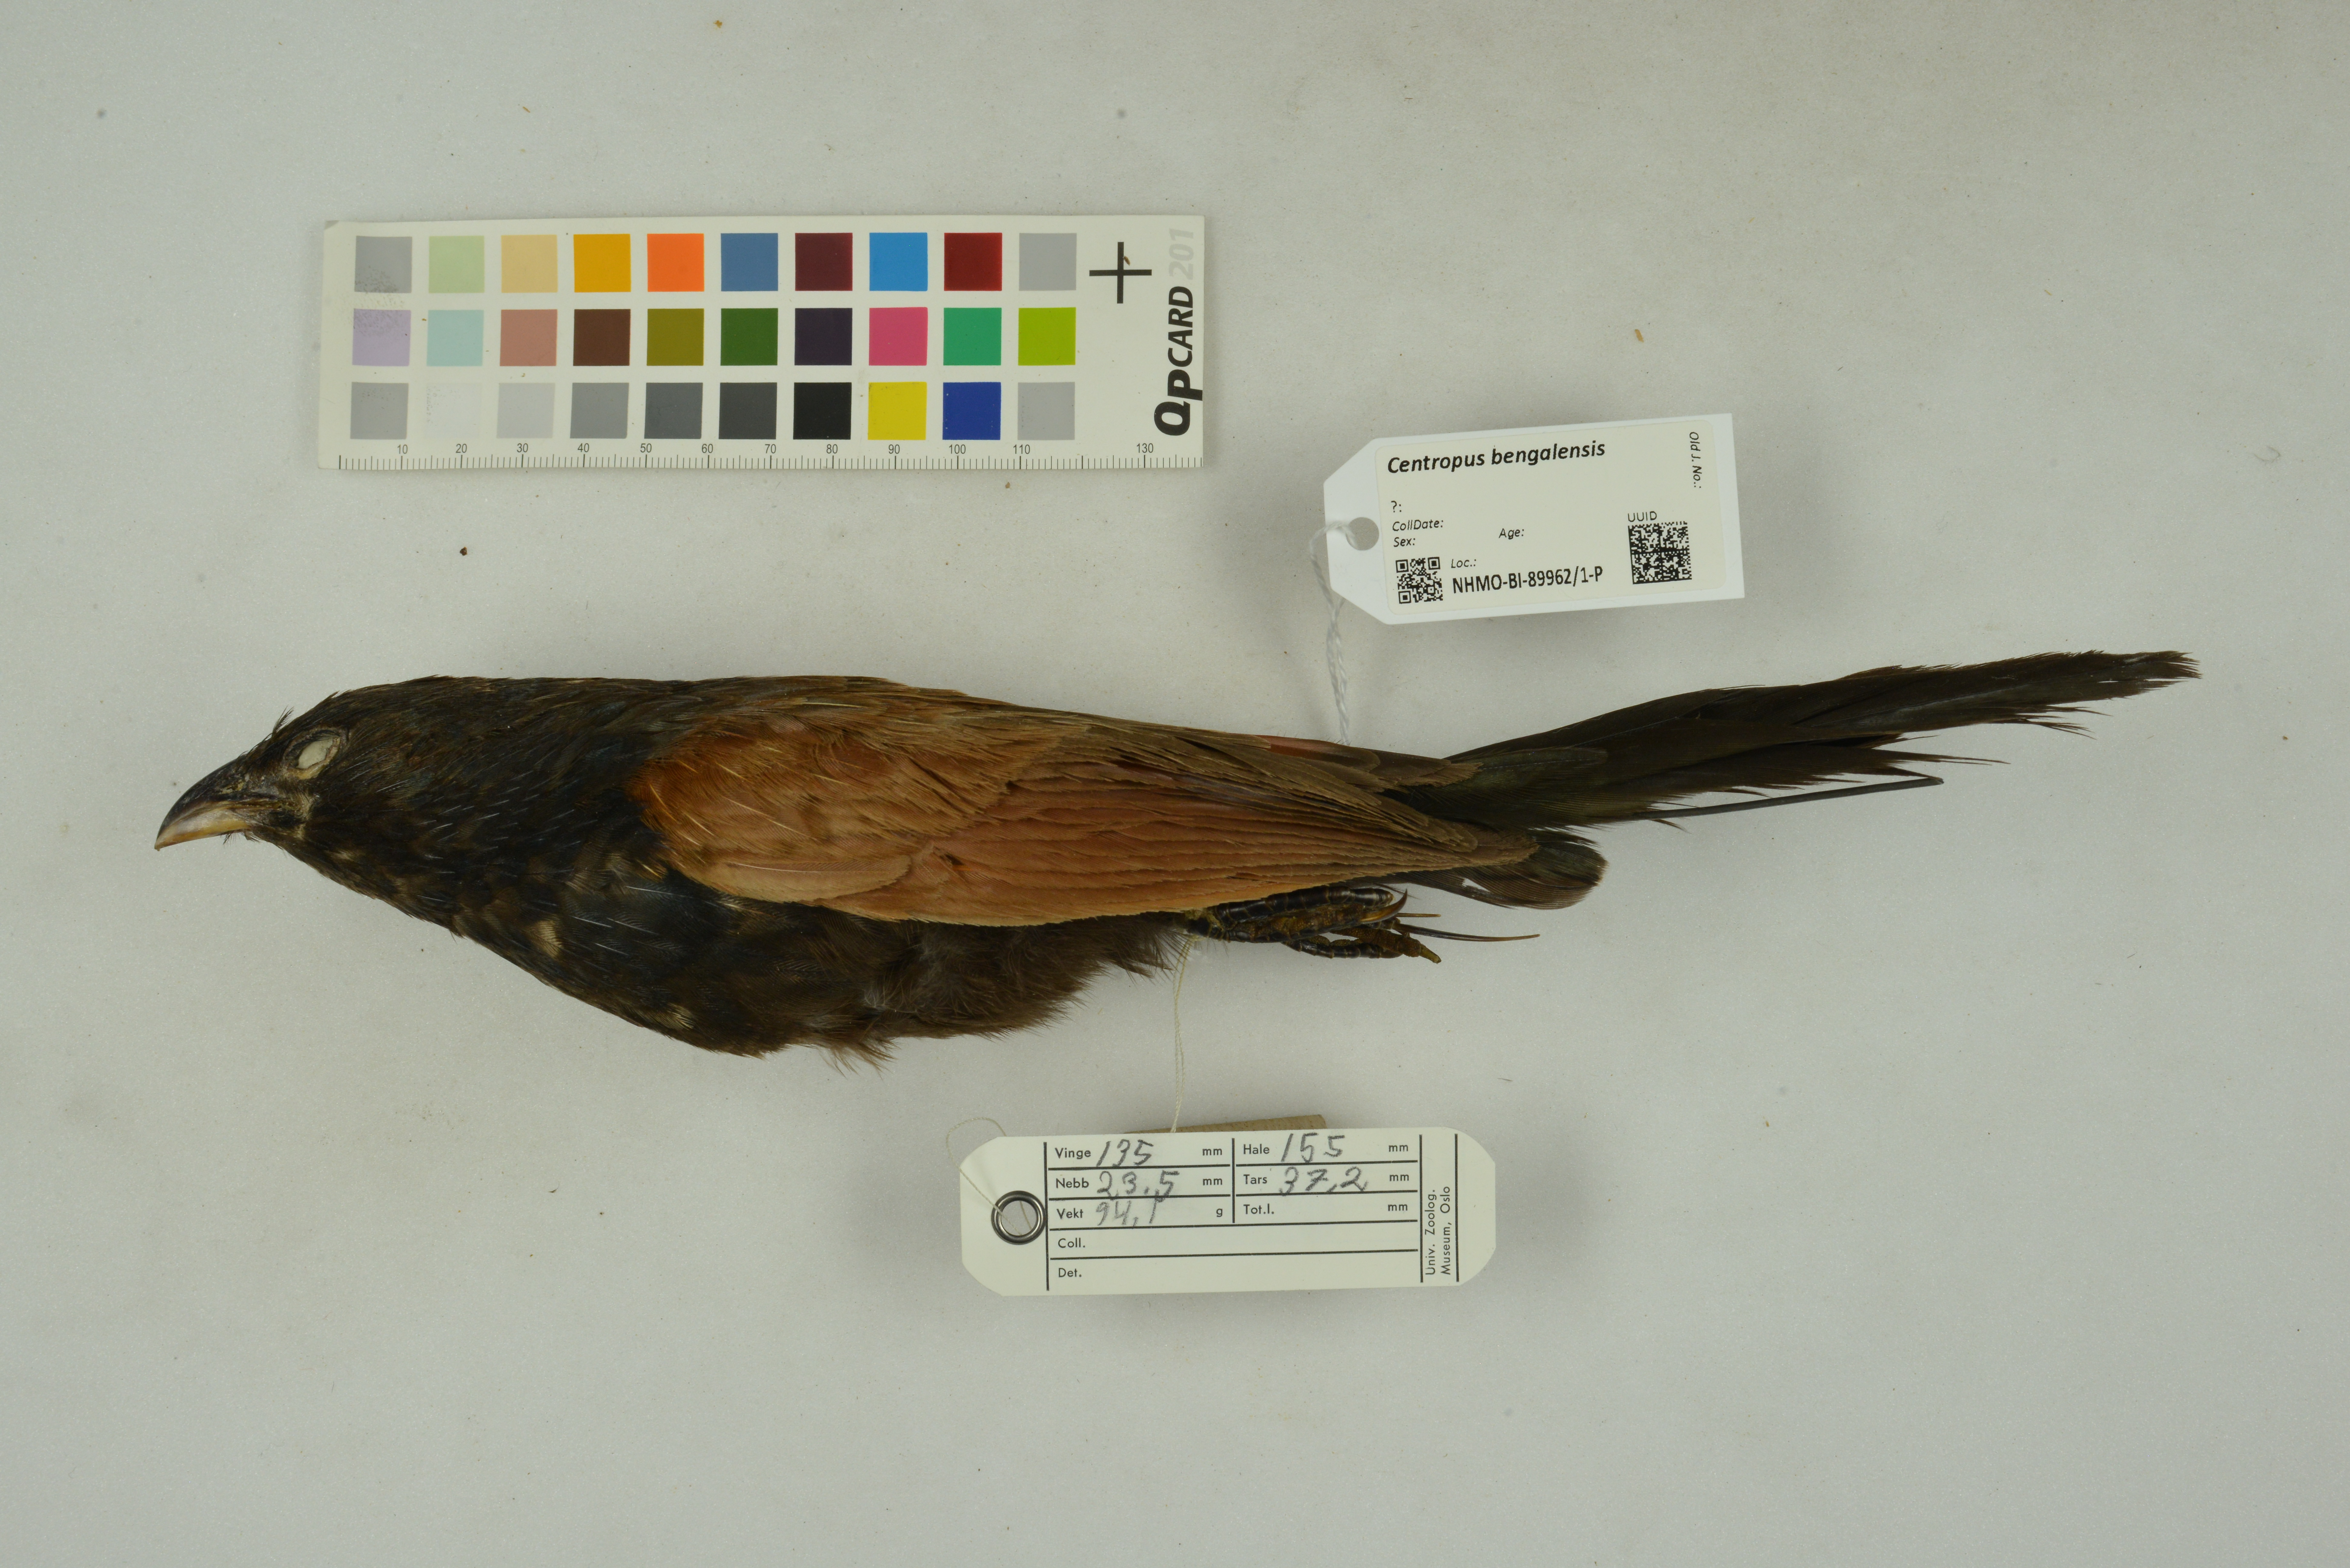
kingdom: Animalia
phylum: Chordata
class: Aves
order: Cuculiformes
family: Cuculidae
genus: Centropus
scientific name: Centropus bengalensis
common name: Lesser coucal
